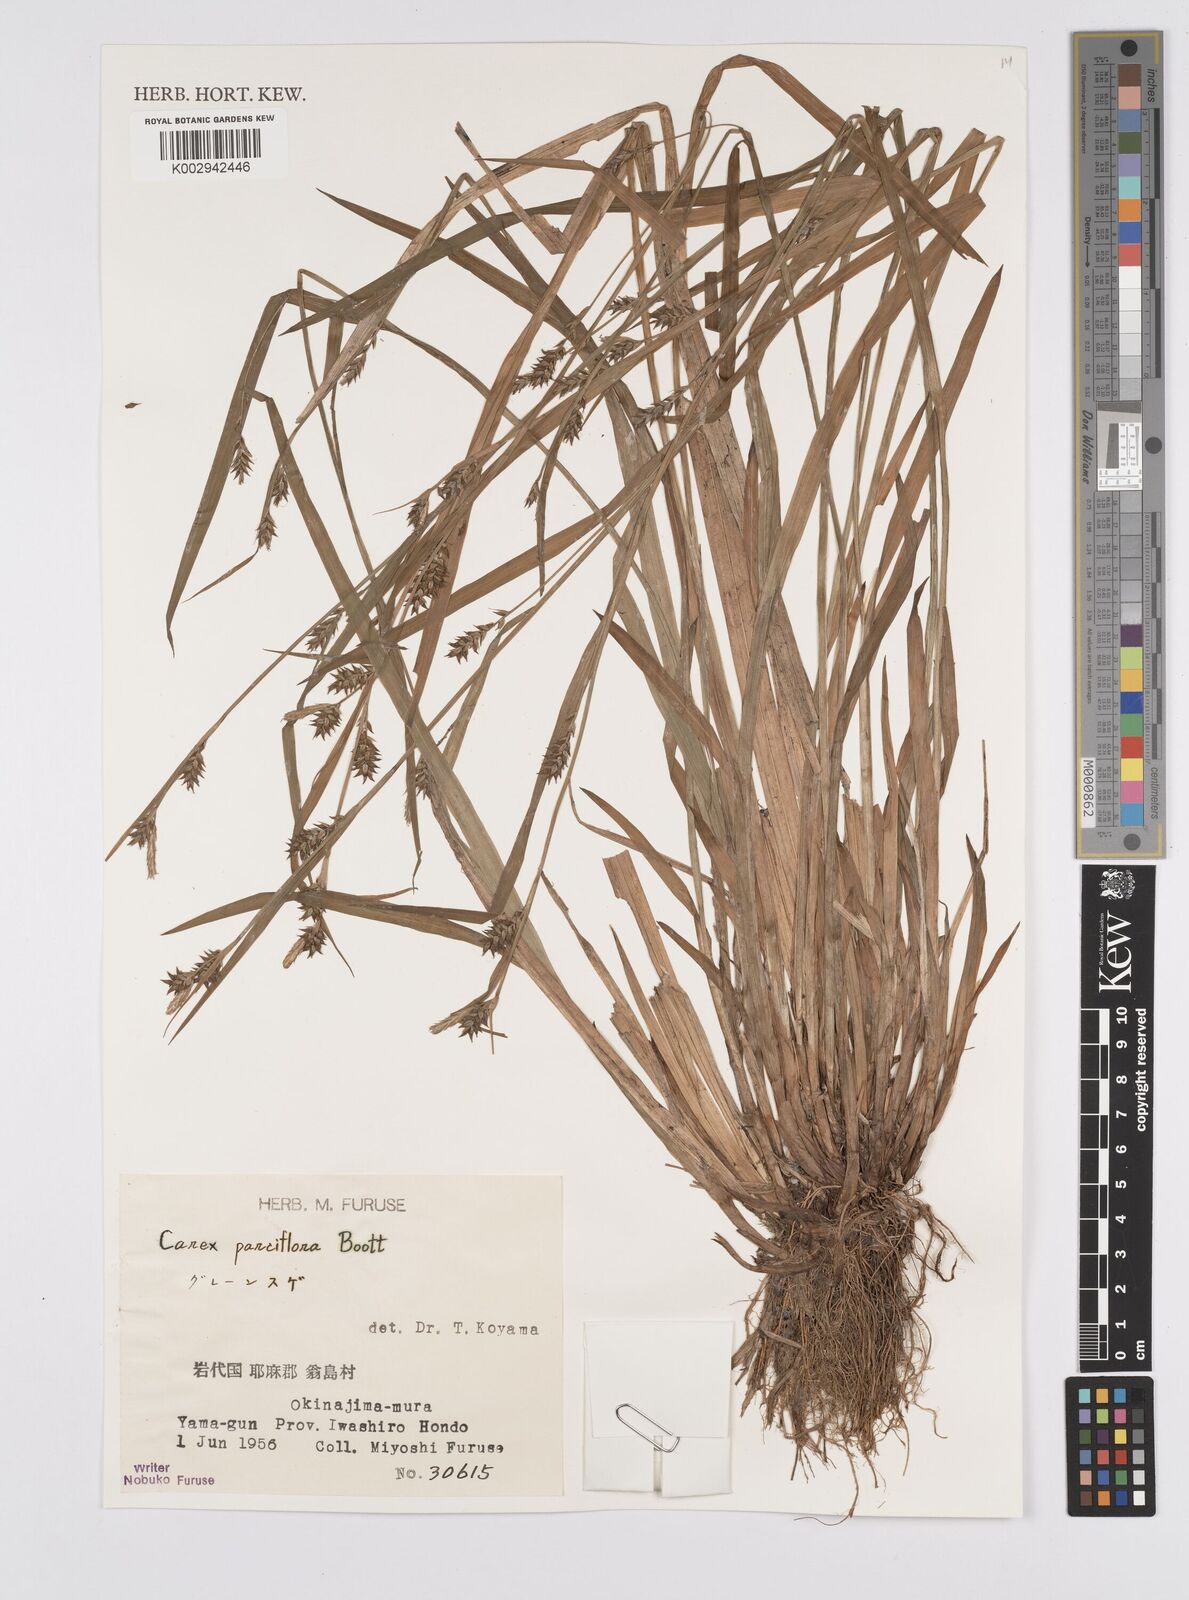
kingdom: Plantae
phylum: Tracheophyta
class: Liliopsida
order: Poales
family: Cyperaceae
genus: Carex
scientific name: Carex jackiana
